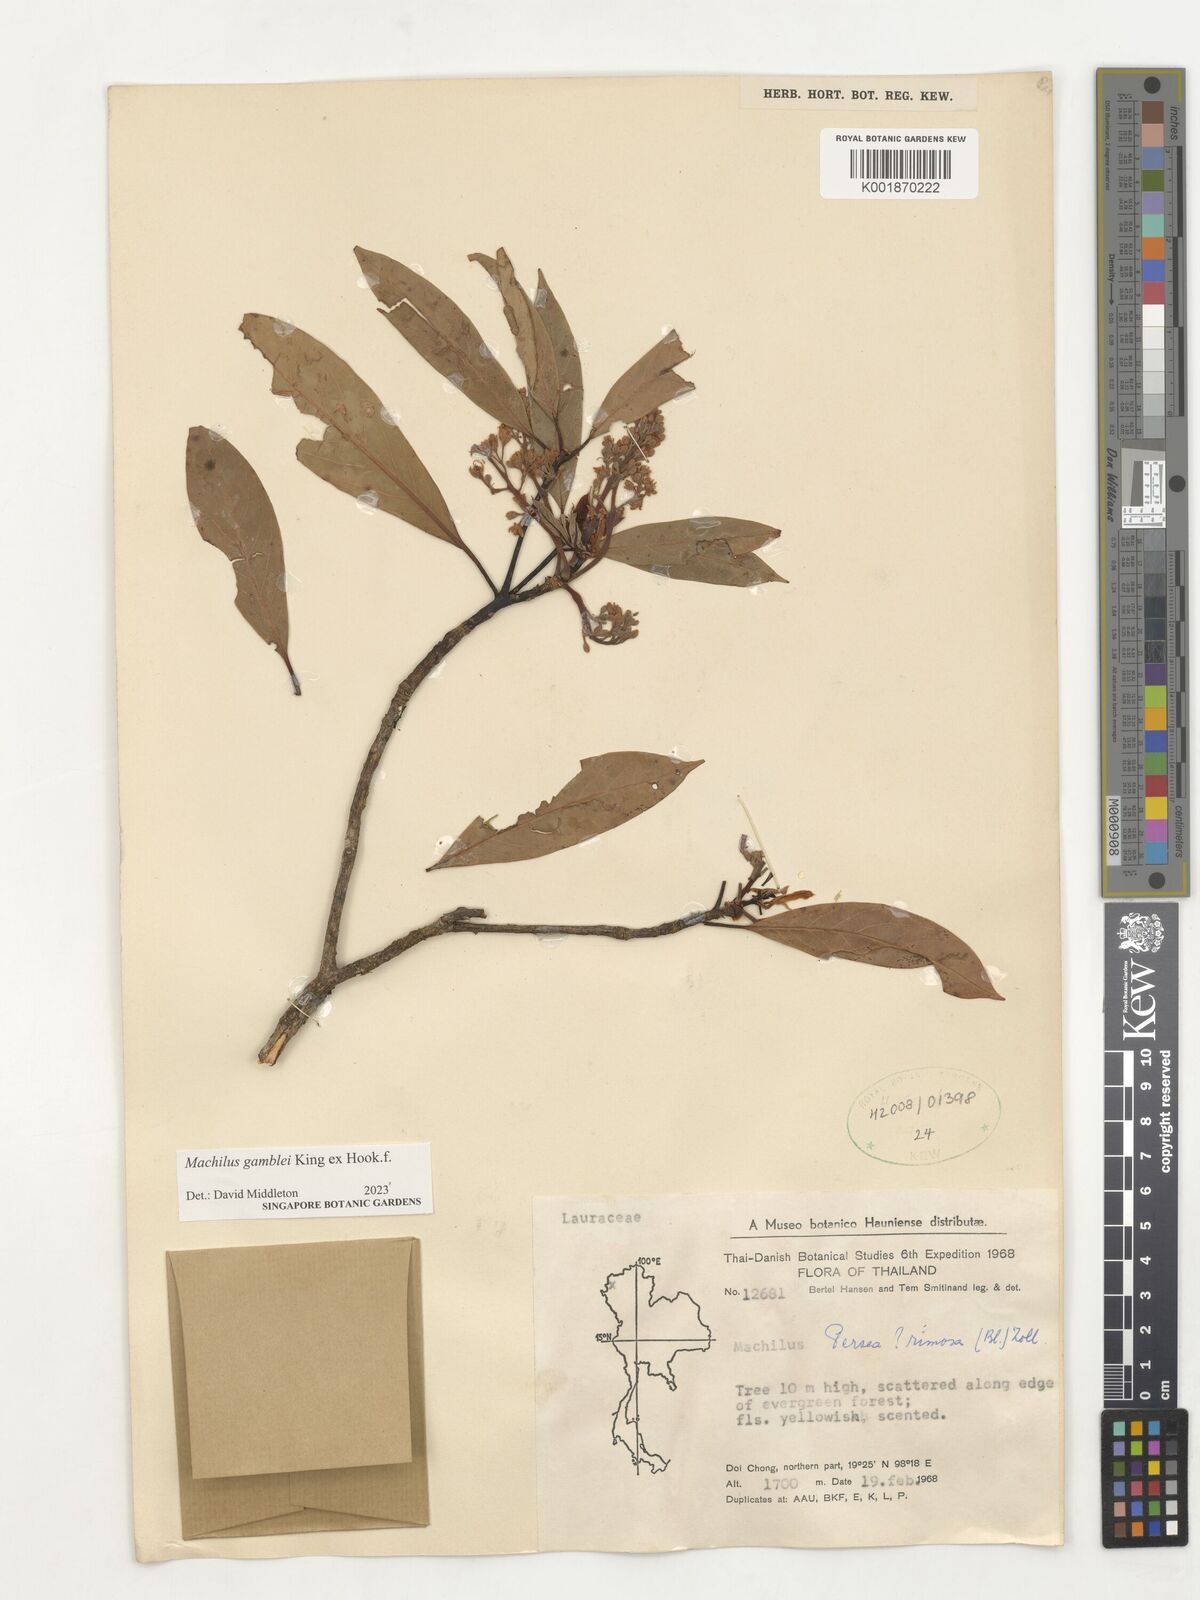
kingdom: Plantae
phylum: Tracheophyta
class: Magnoliopsida
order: Laurales
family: Lauraceae
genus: Machilus
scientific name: Machilus gamblei
